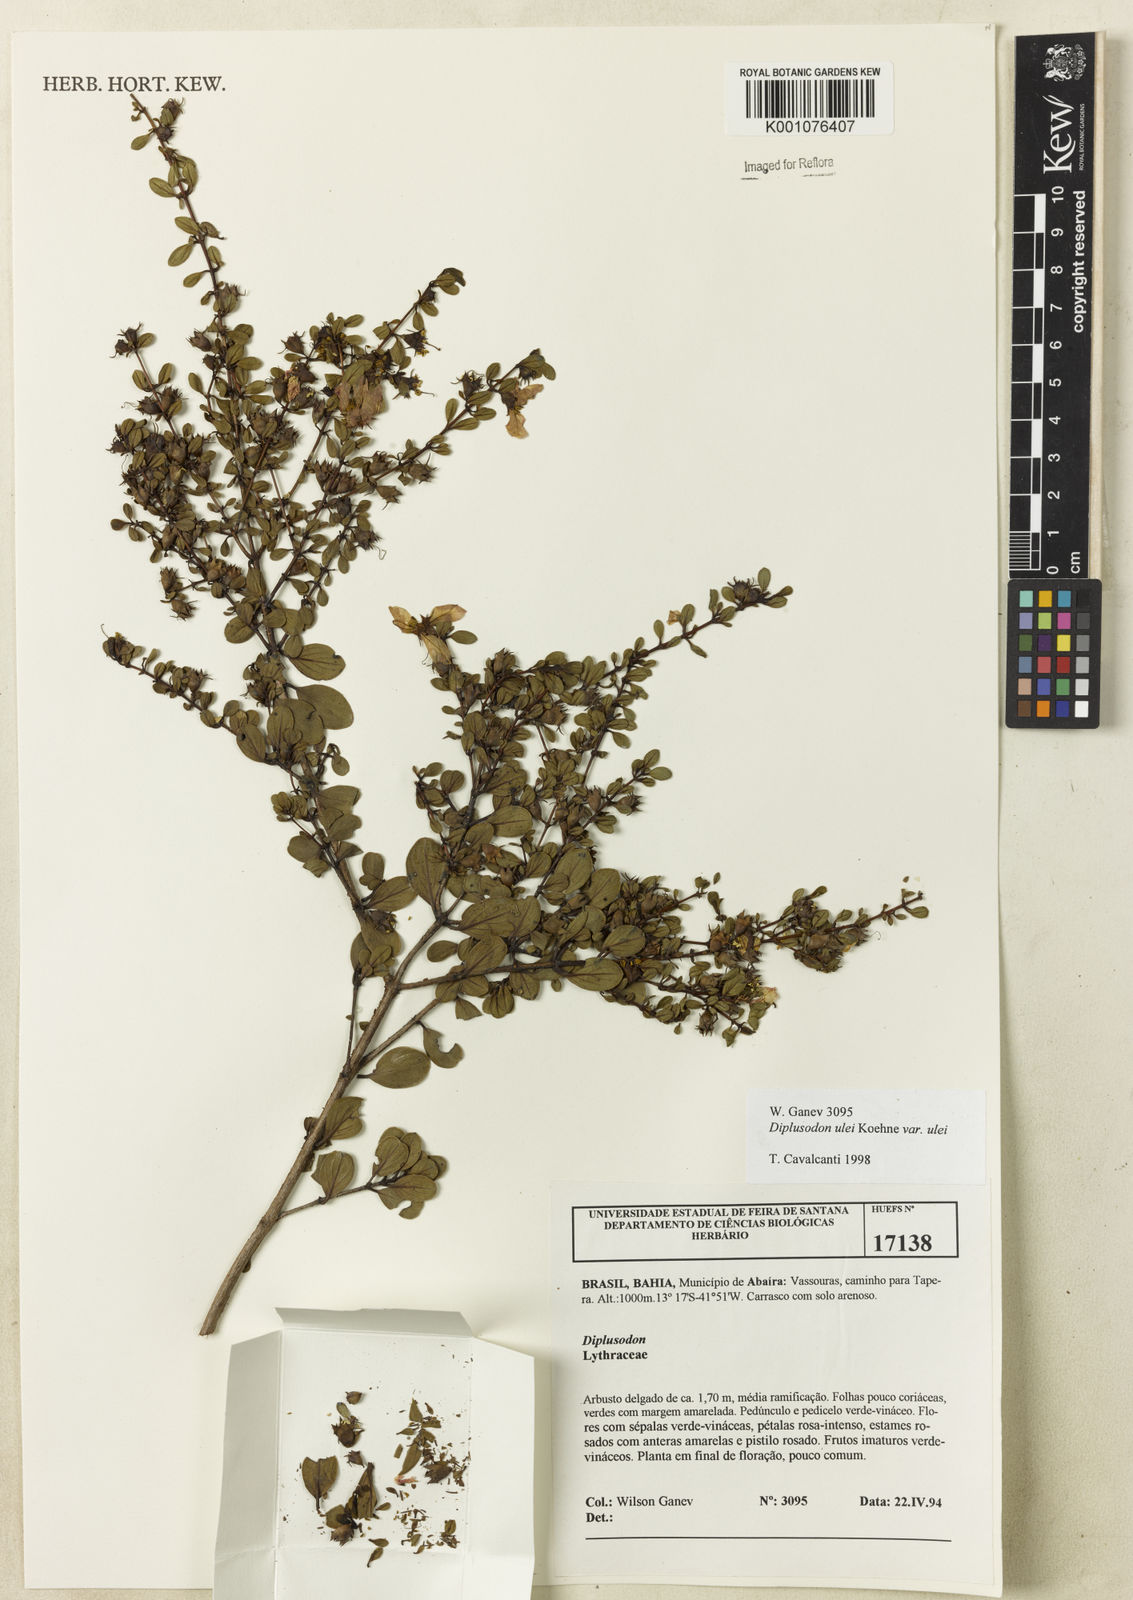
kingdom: Plantae
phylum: Tracheophyta
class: Magnoliopsida
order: Myrtales
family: Lythraceae
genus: Diplusodon
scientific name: Diplusodon ulei
